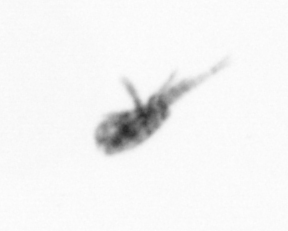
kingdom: Animalia
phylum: Arthropoda
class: Copepoda
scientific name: Copepoda
